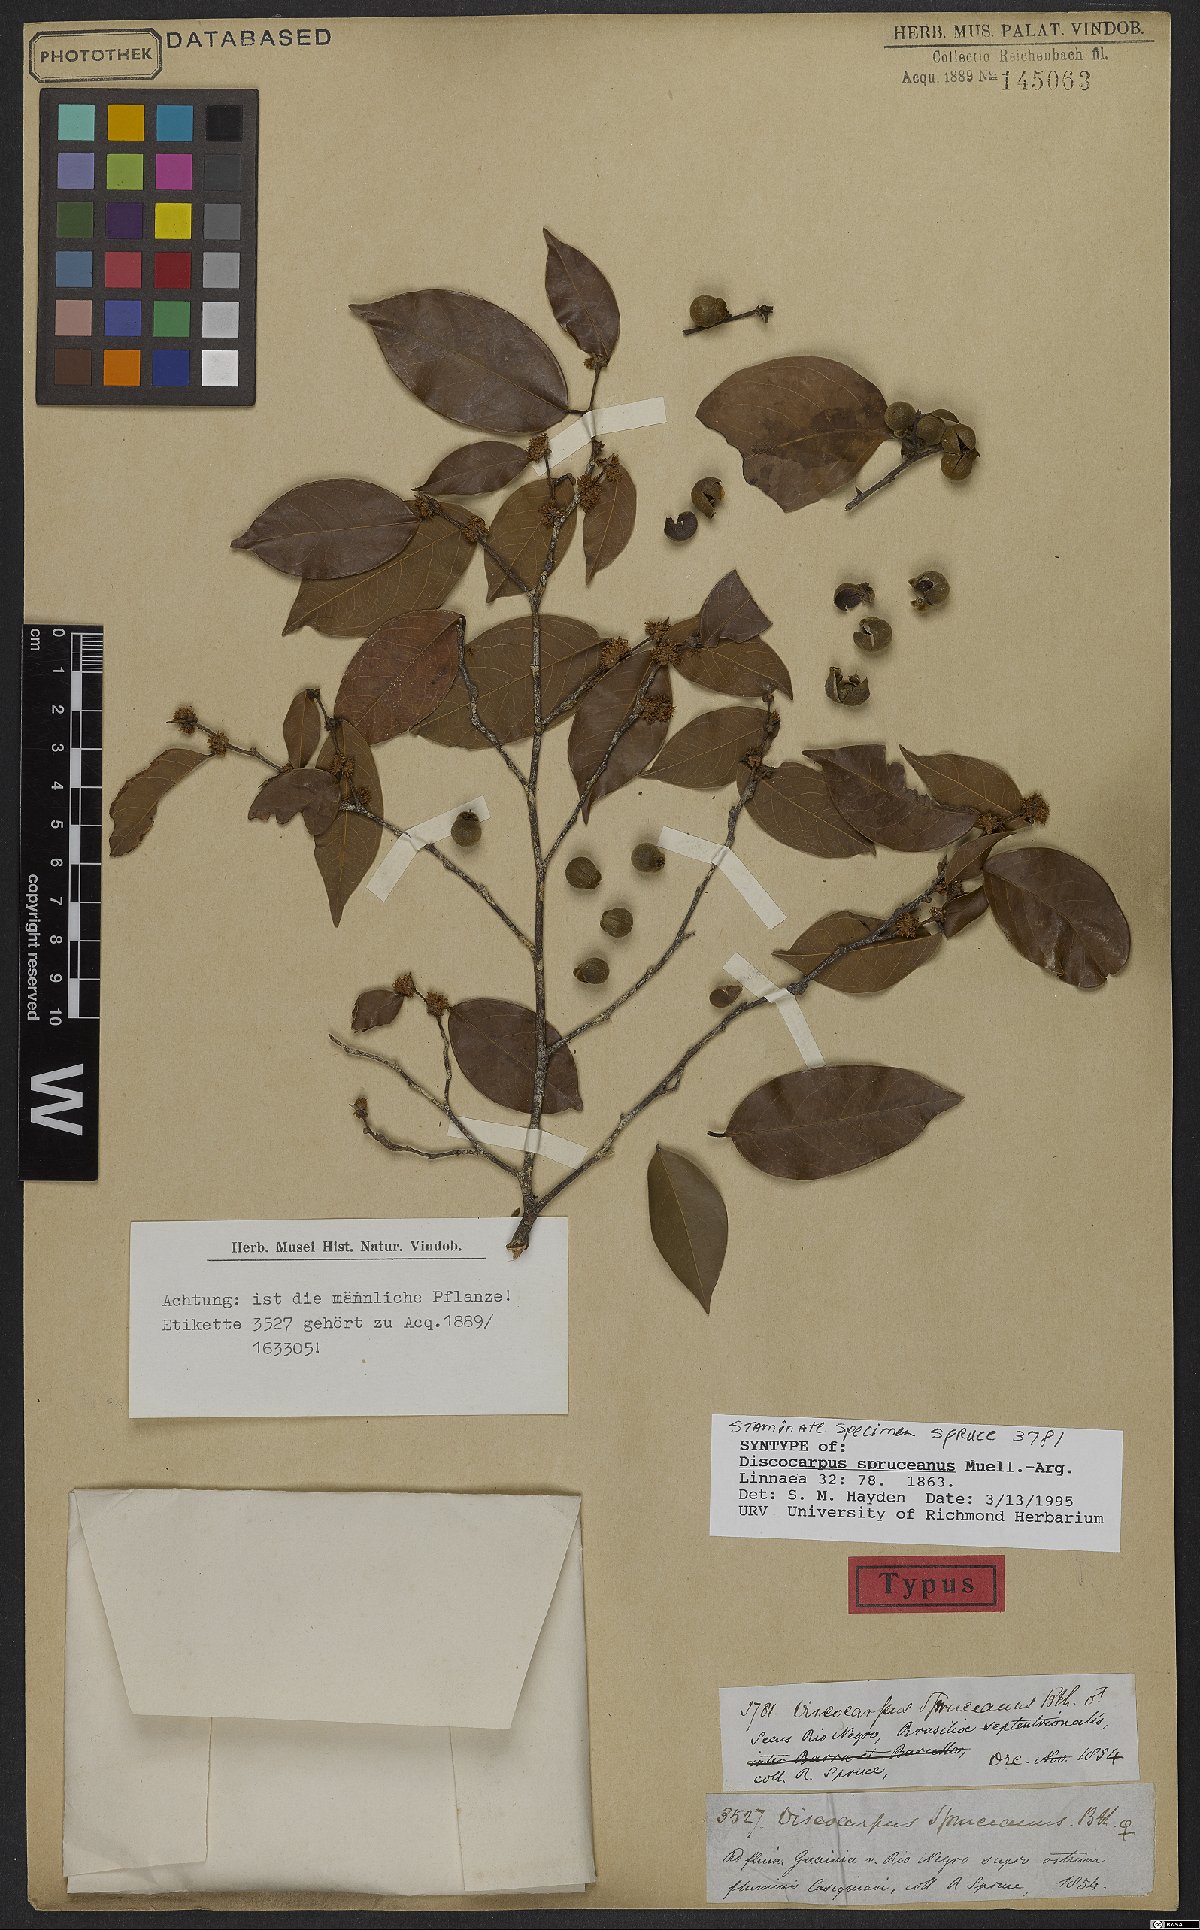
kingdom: Plantae
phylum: Tracheophyta
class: Magnoliopsida
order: Malpighiales
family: Phyllanthaceae
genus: Discocarpus
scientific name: Discocarpus spruceanus
